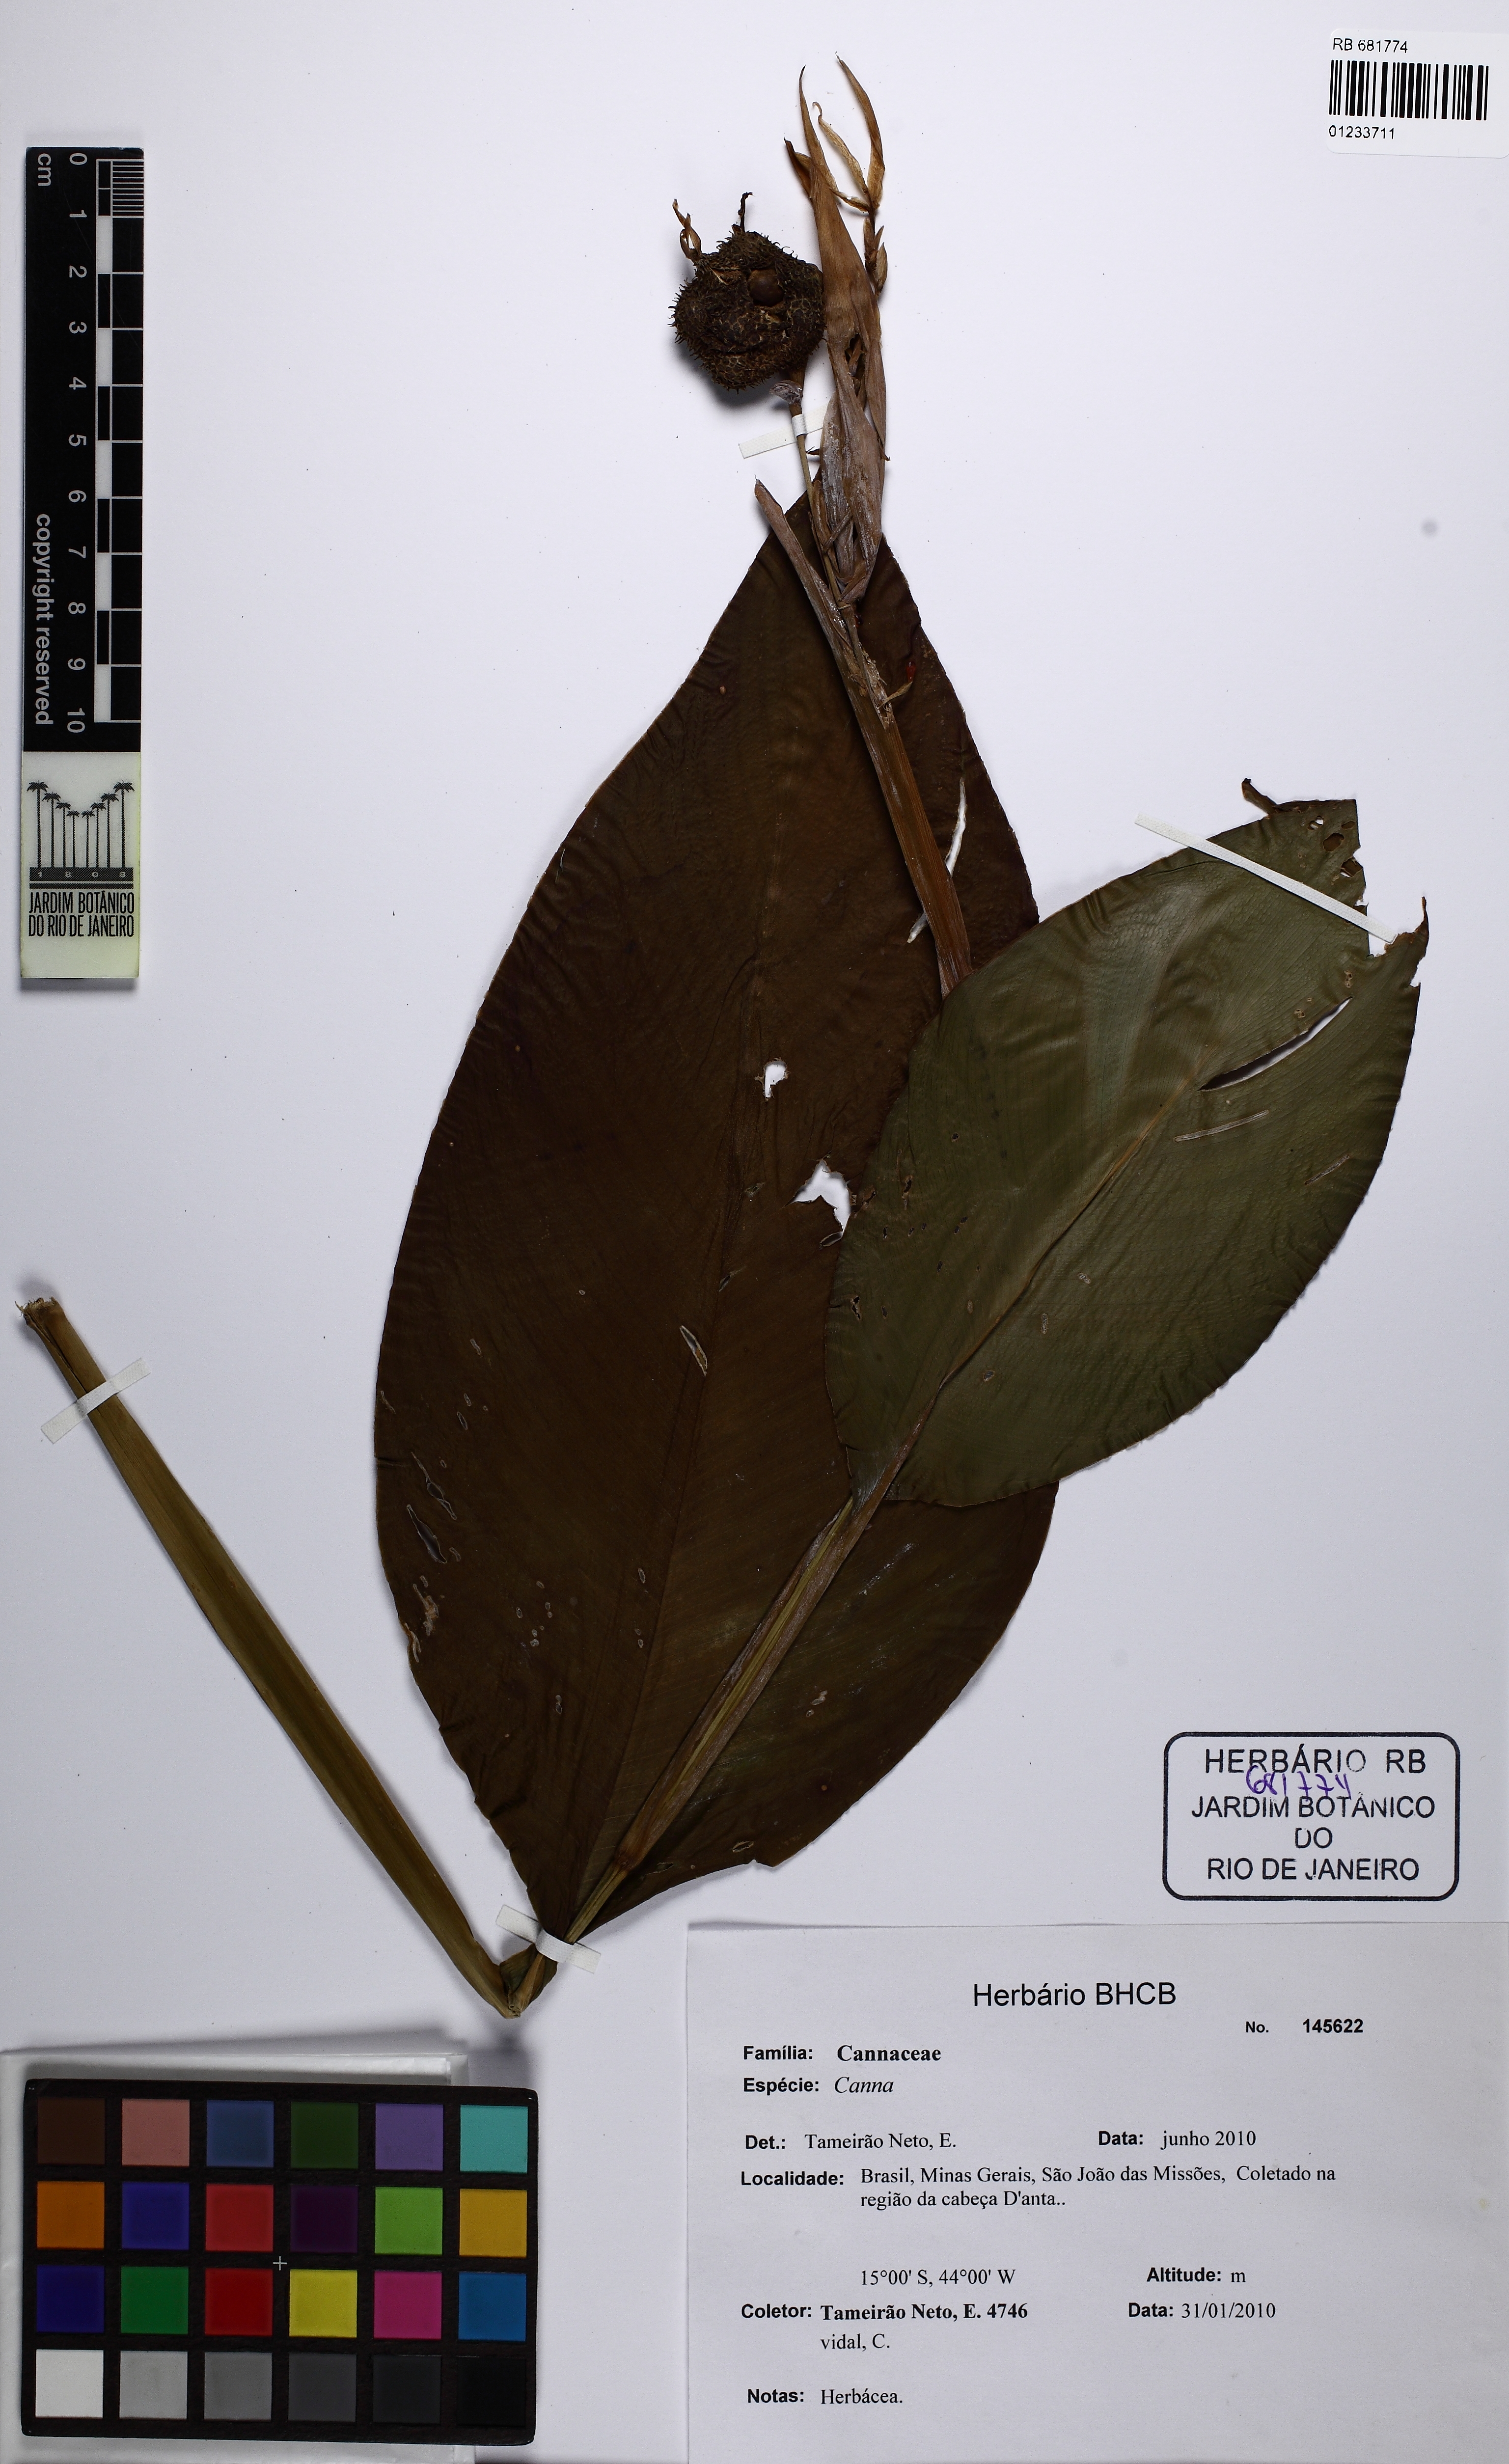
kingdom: Plantae
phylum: Tracheophyta
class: Liliopsida
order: Zingiberales
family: Cannaceae
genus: Canna
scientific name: Canna
